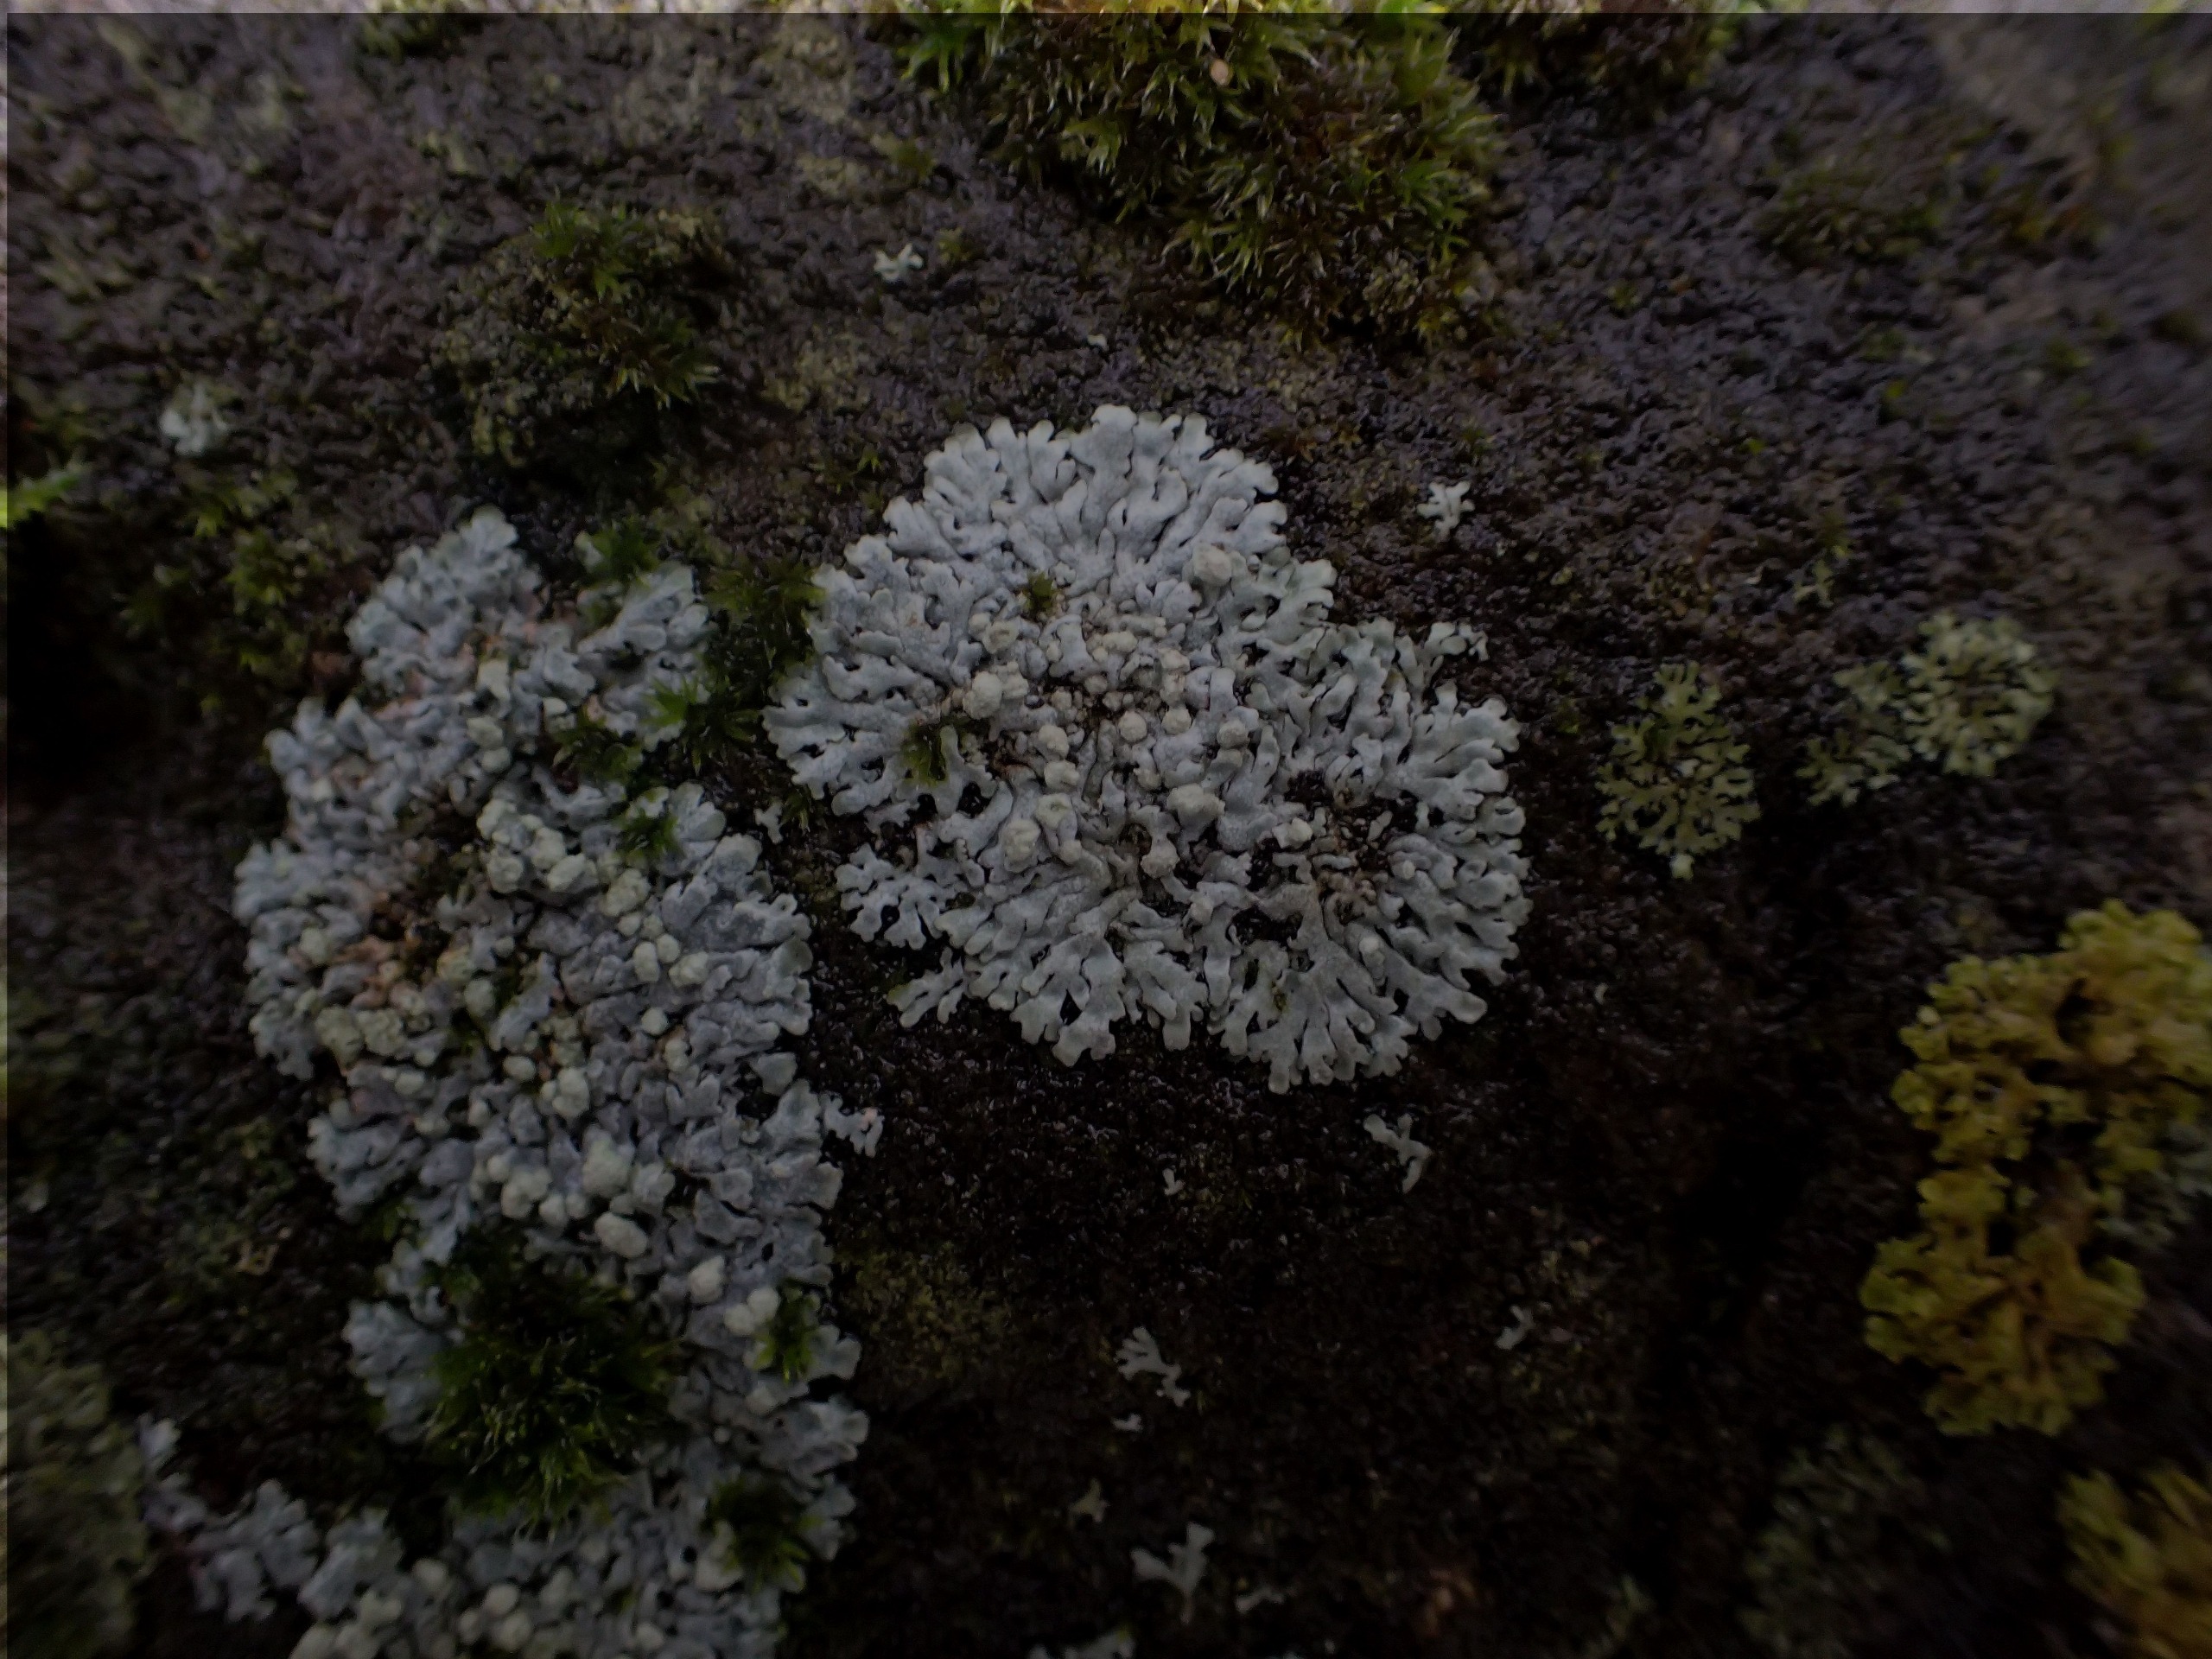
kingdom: Fungi
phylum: Ascomycota
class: Lecanoromycetes
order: Caliciales
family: Physciaceae
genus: Physcia
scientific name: Physcia caesia
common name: Blågrå rosetlav
